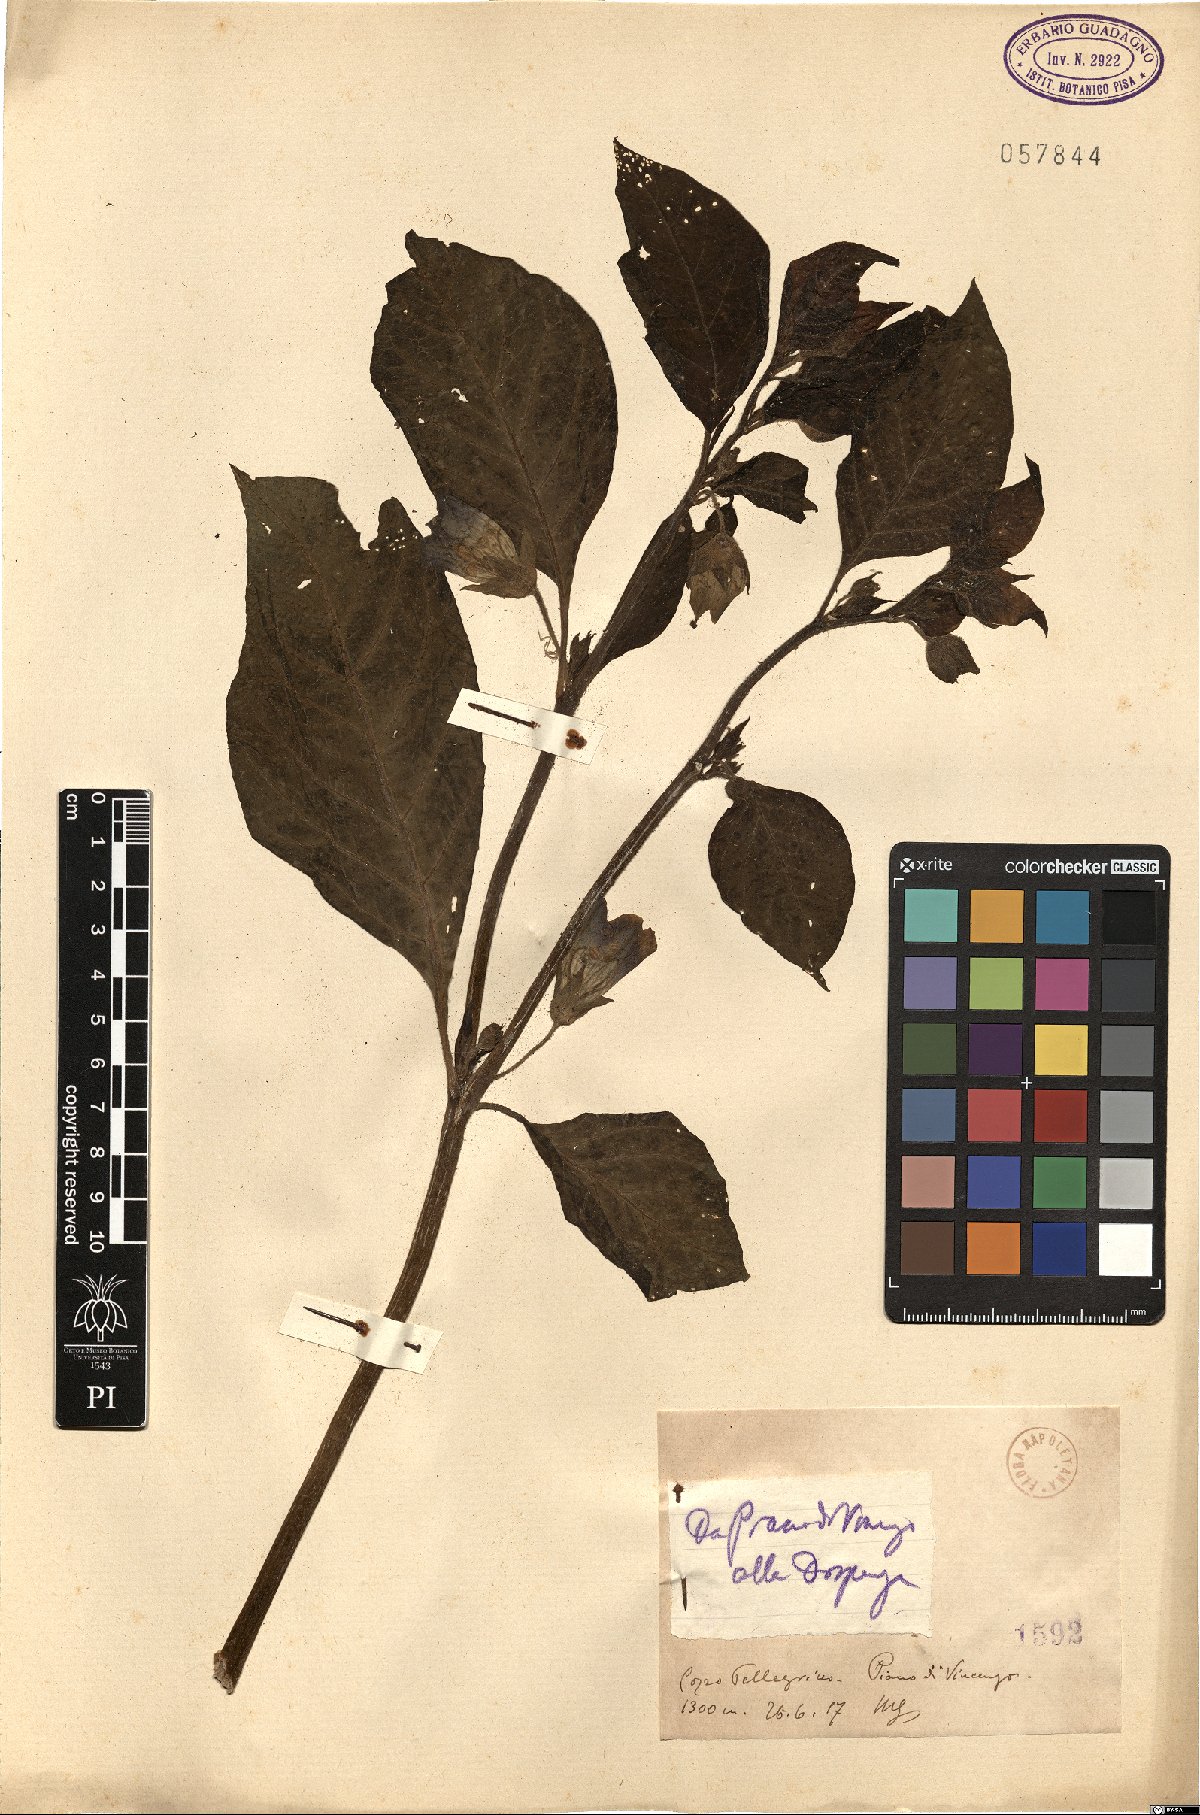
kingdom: Plantae
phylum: Tracheophyta
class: Magnoliopsida
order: Solanales
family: Solanaceae
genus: Atropa
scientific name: Atropa
